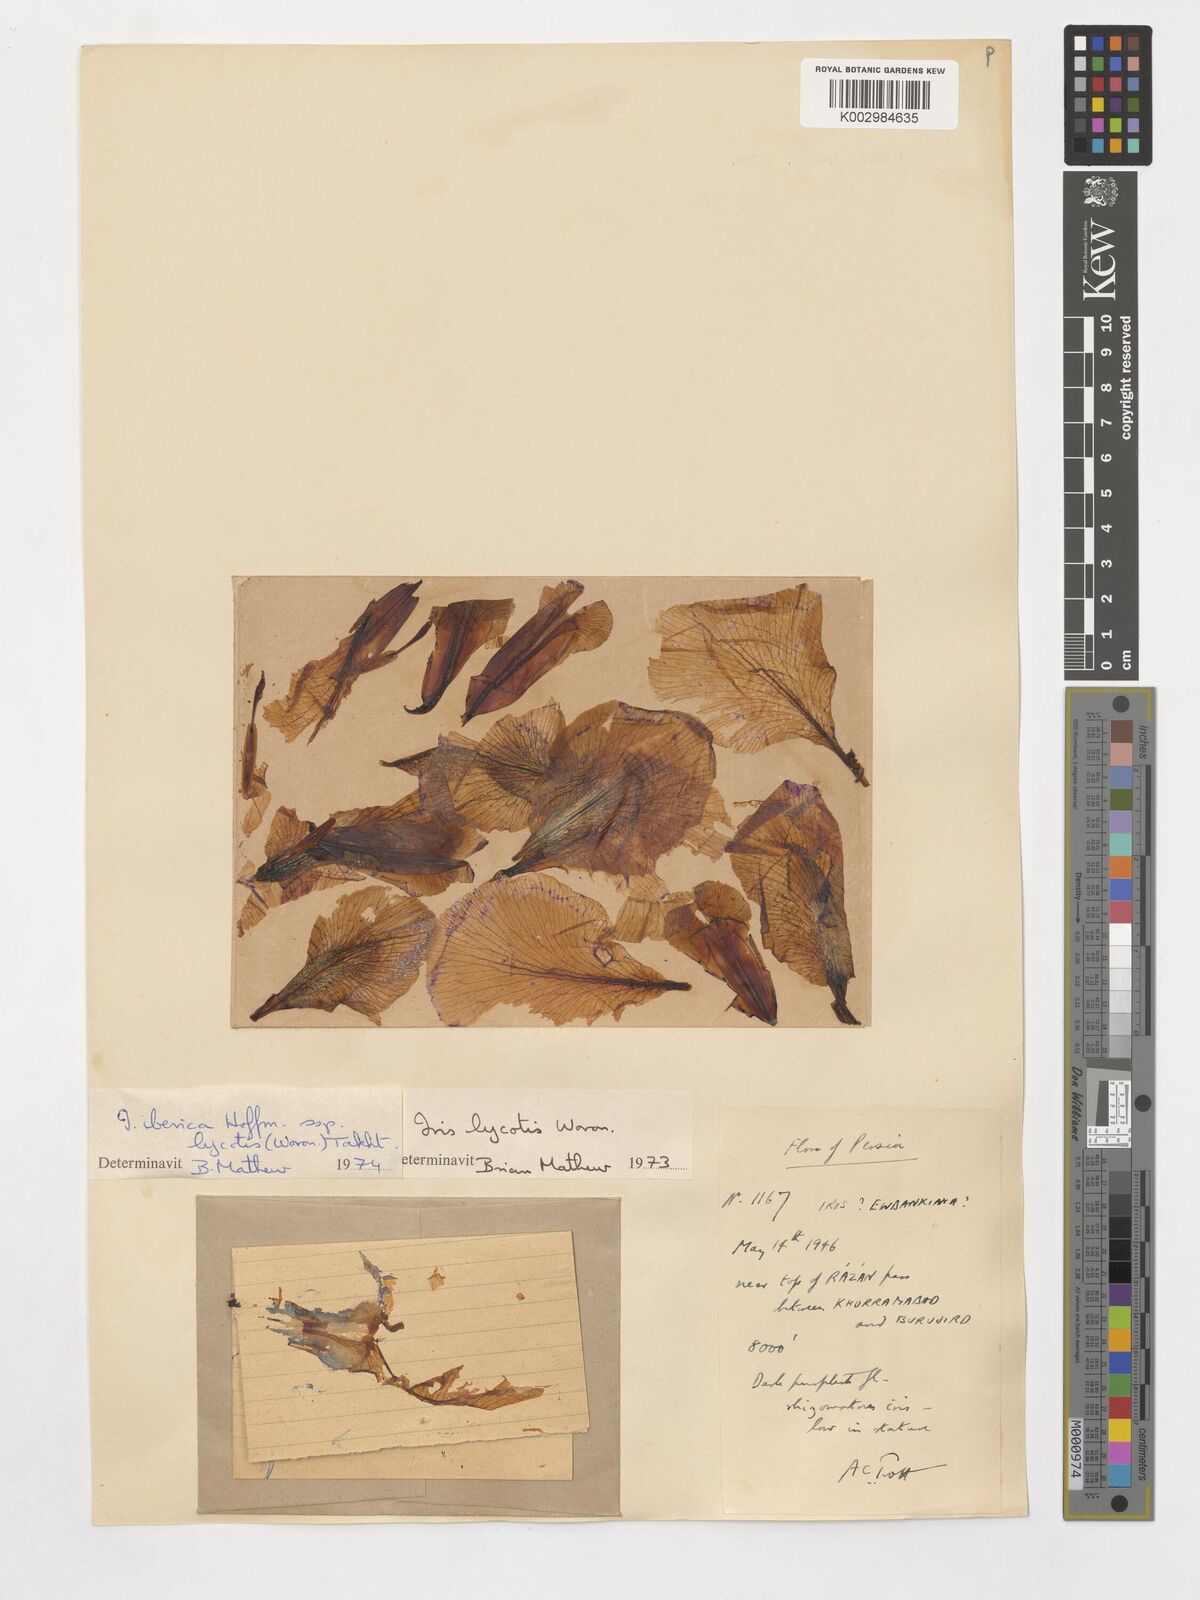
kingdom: Plantae
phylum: Tracheophyta
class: Liliopsida
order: Asparagales
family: Iridaceae
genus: Iris
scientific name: Iris lycotis
